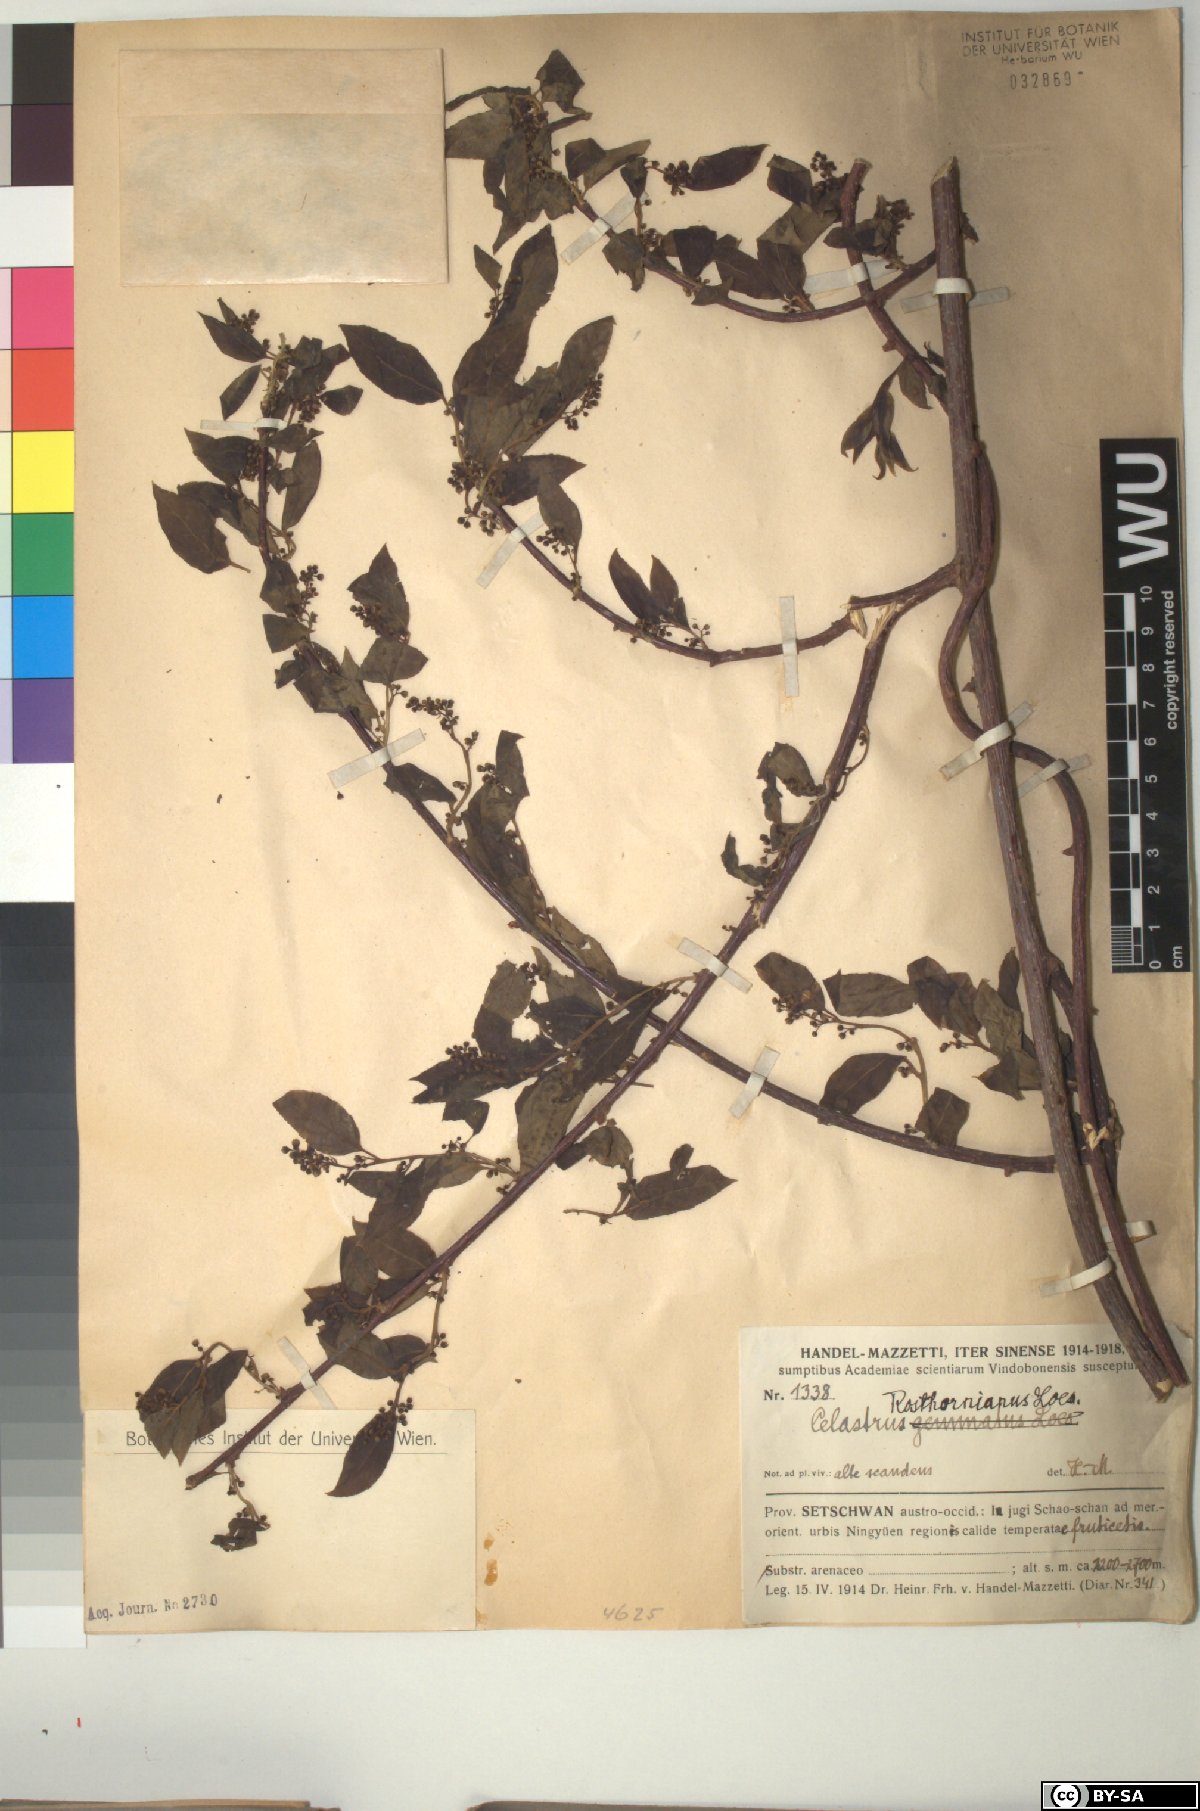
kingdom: Plantae
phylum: Tracheophyta
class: Magnoliopsida
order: Celastrales
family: Celastraceae
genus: Celastrus
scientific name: Celastrus rosthornianus
